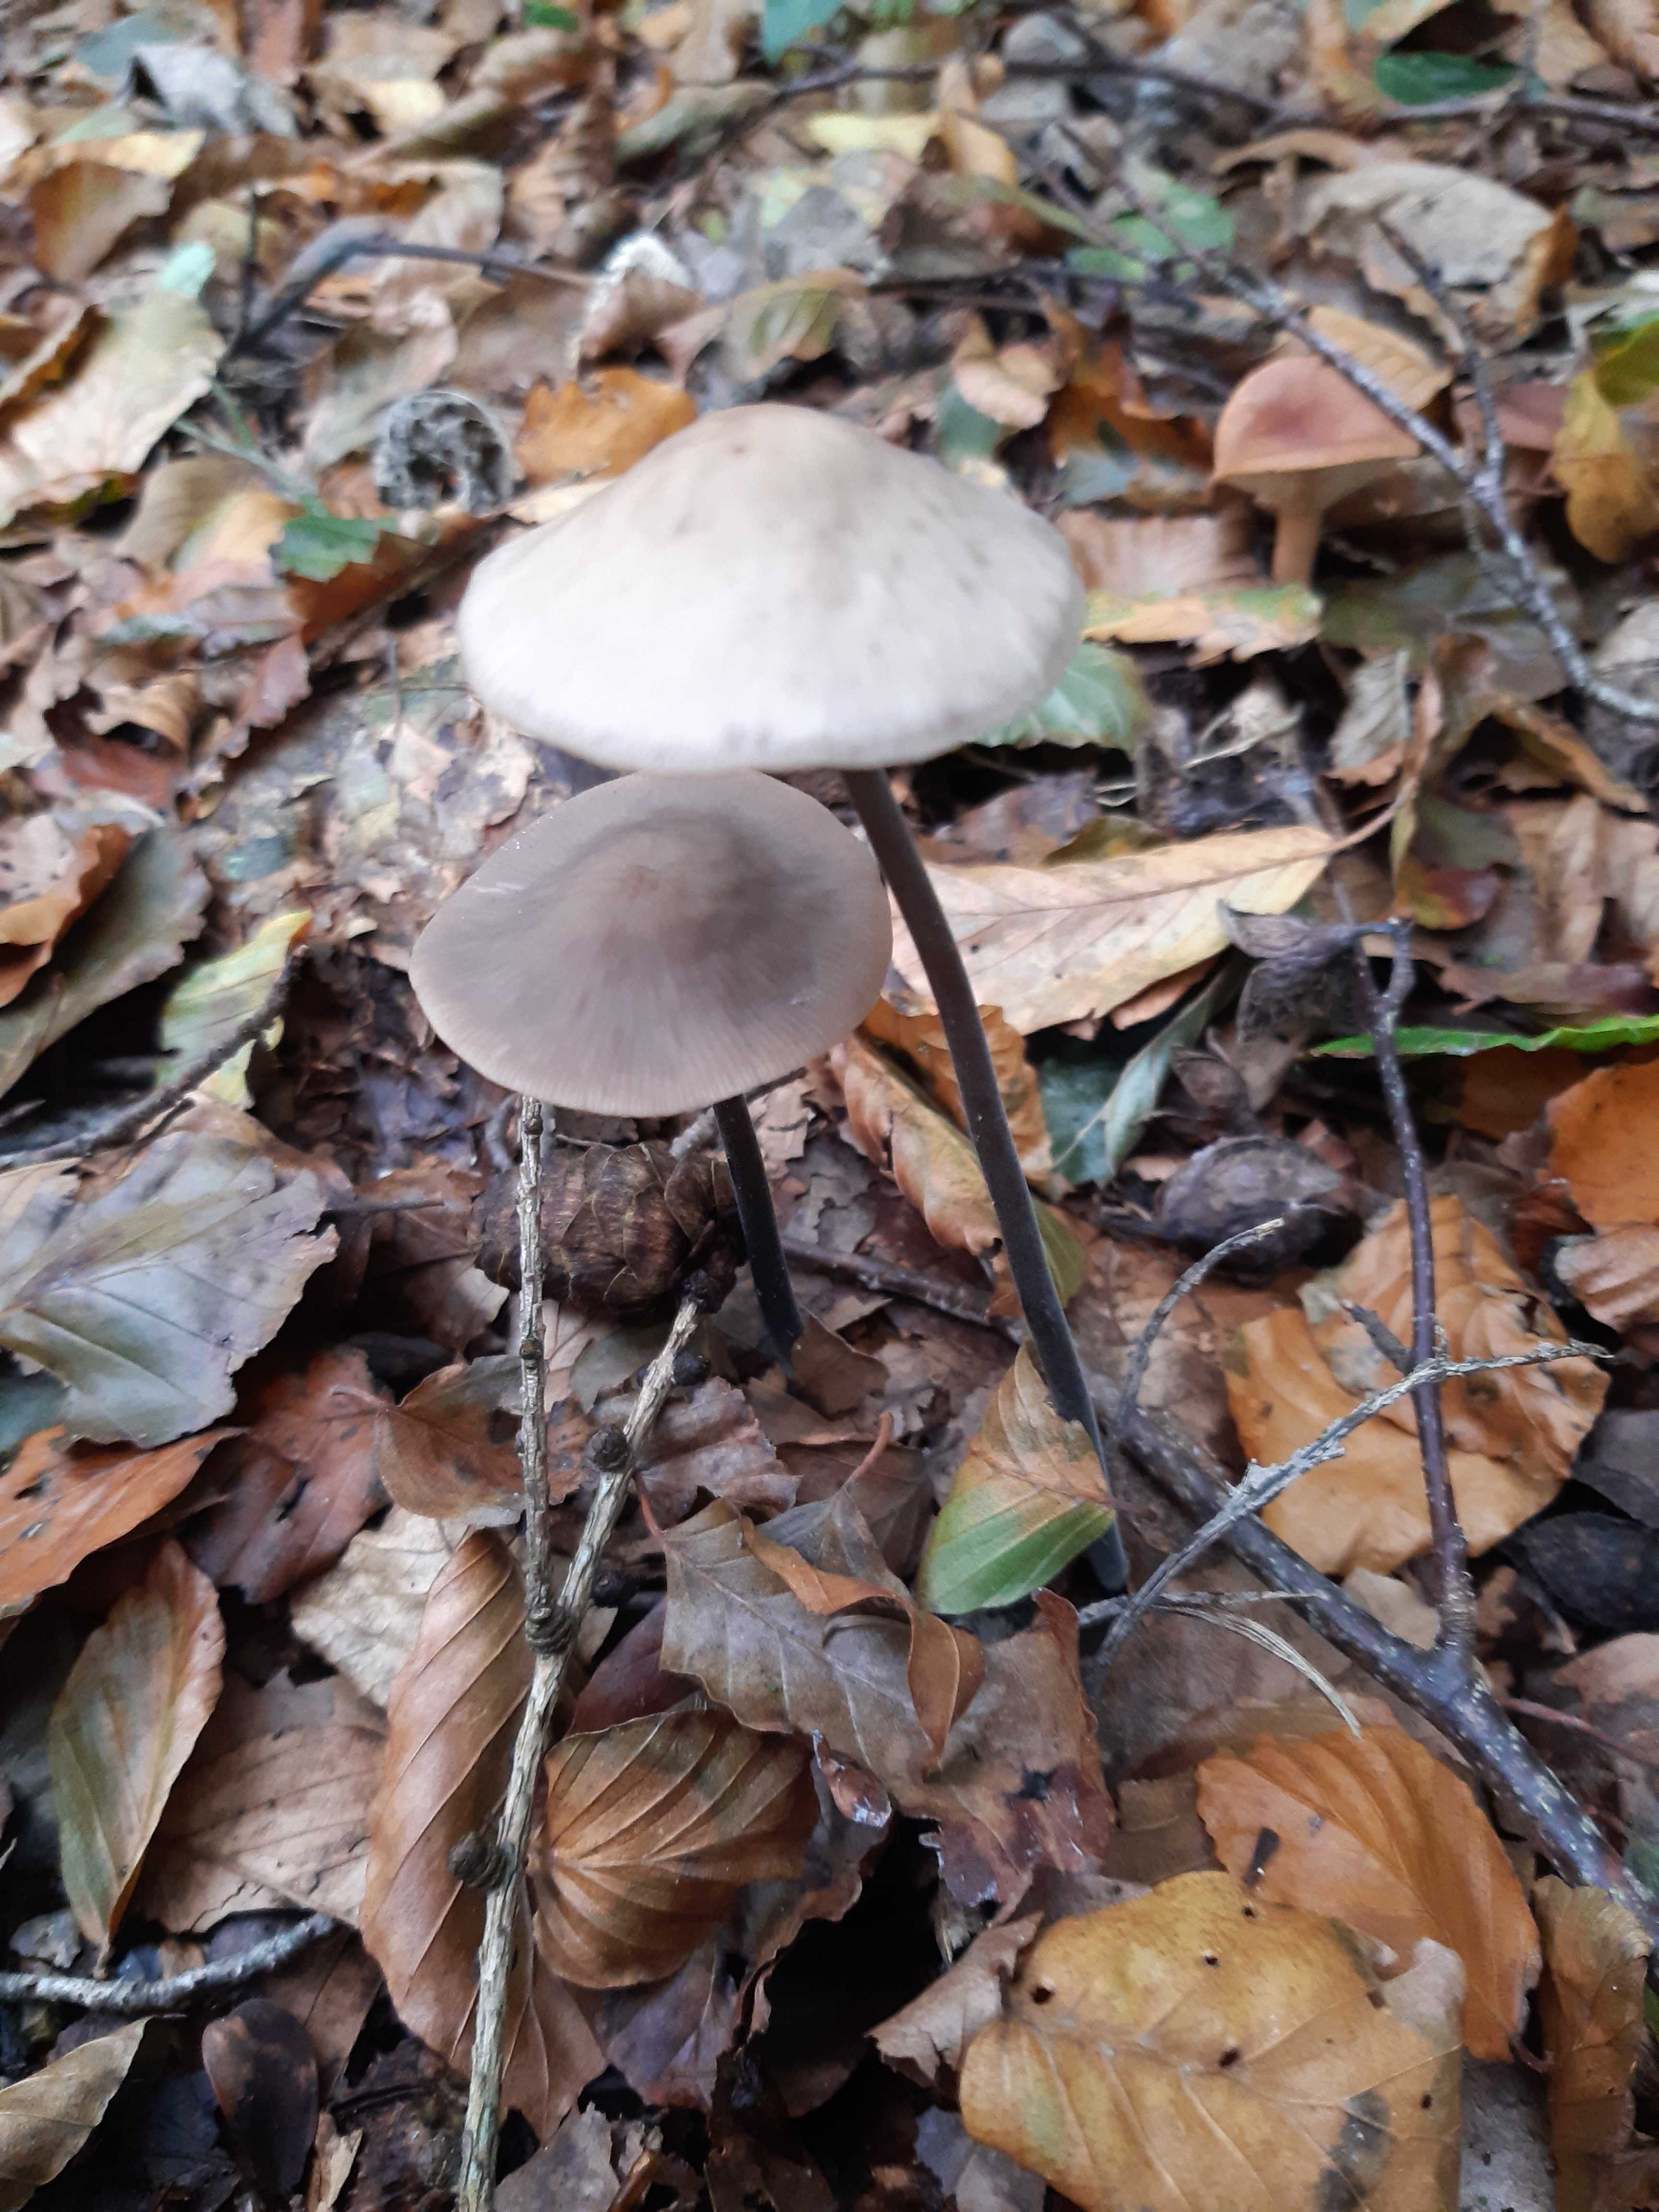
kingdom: Fungi
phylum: Basidiomycota
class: Agaricomycetes
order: Agaricales
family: Omphalotaceae
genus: Mycetinis
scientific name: Mycetinis alliaceus
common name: stor løghat
